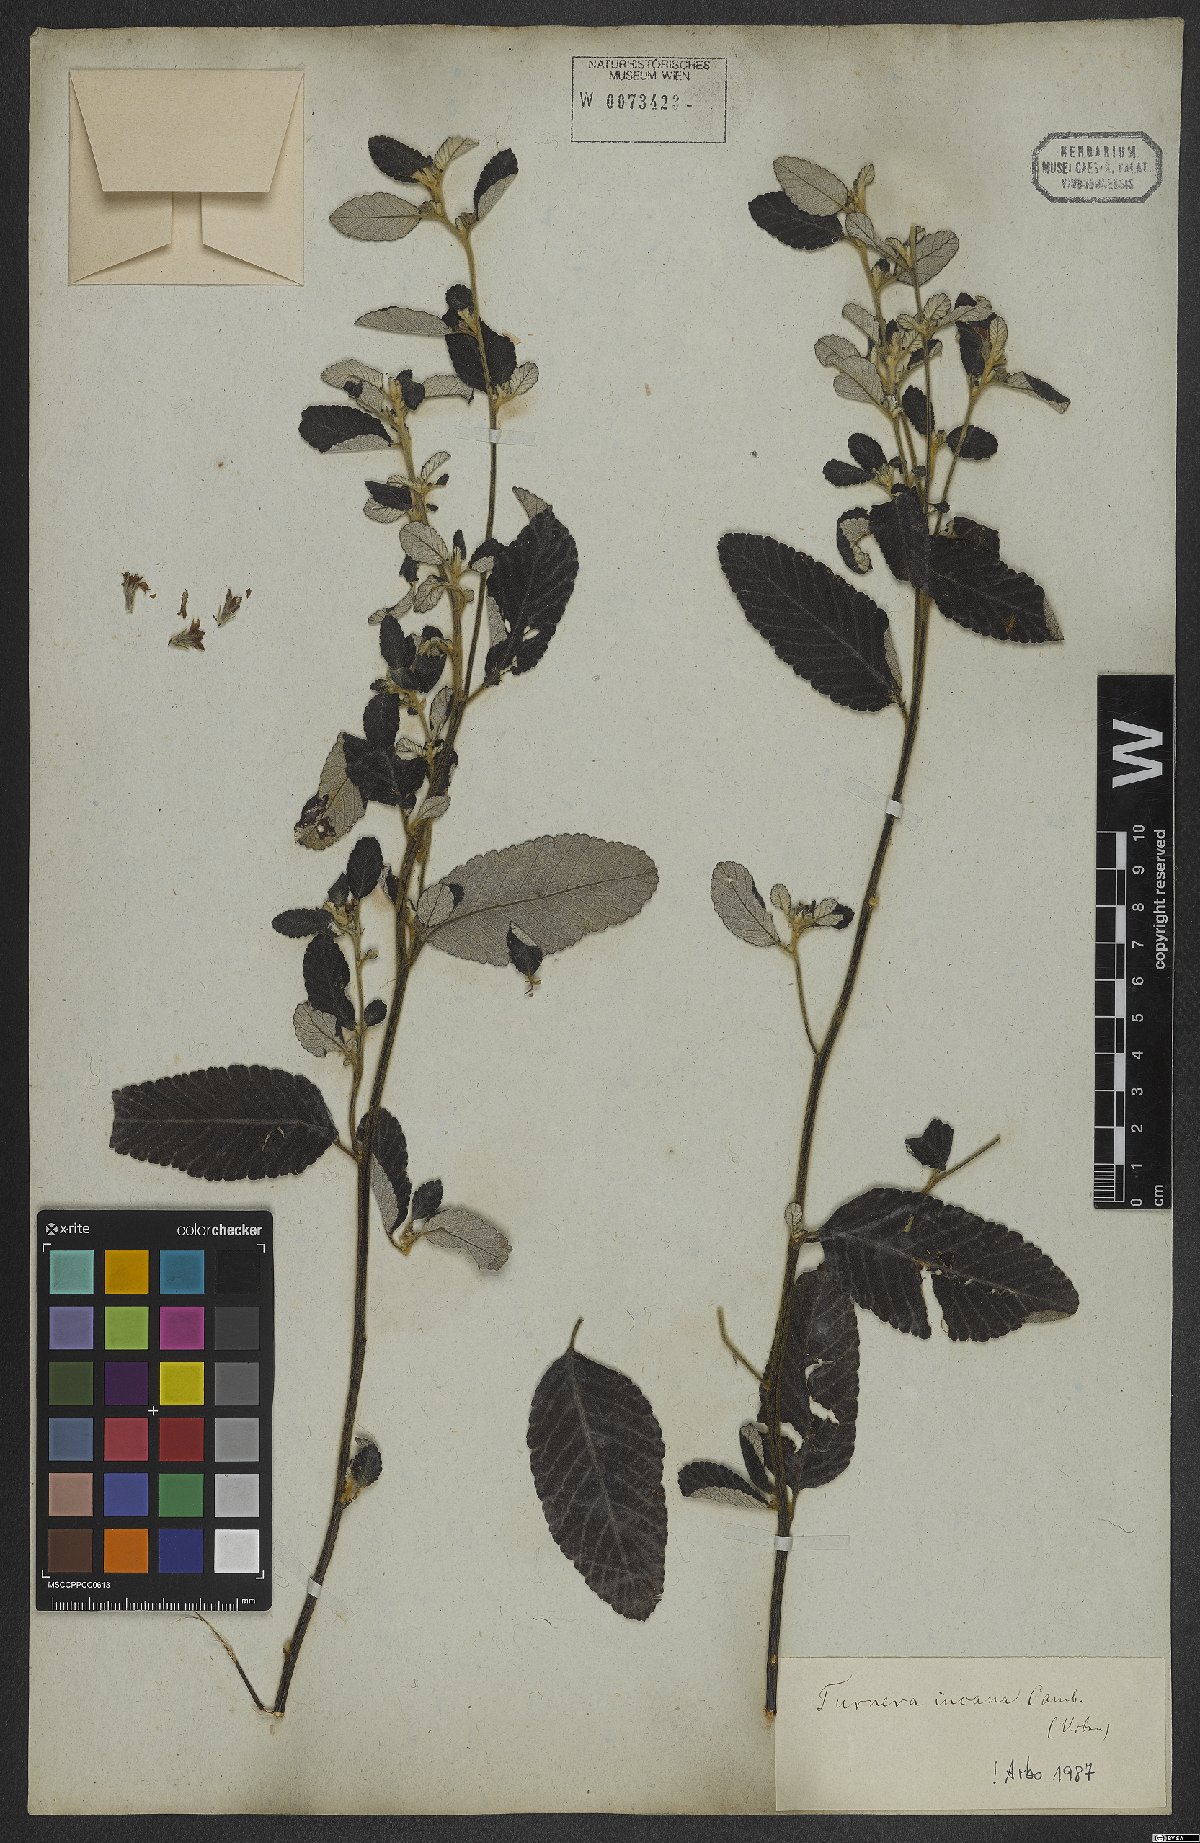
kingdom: Plantae
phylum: Tracheophyta
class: Magnoliopsida
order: Malpighiales
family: Turneraceae
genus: Turnera
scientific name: Turnera incana
